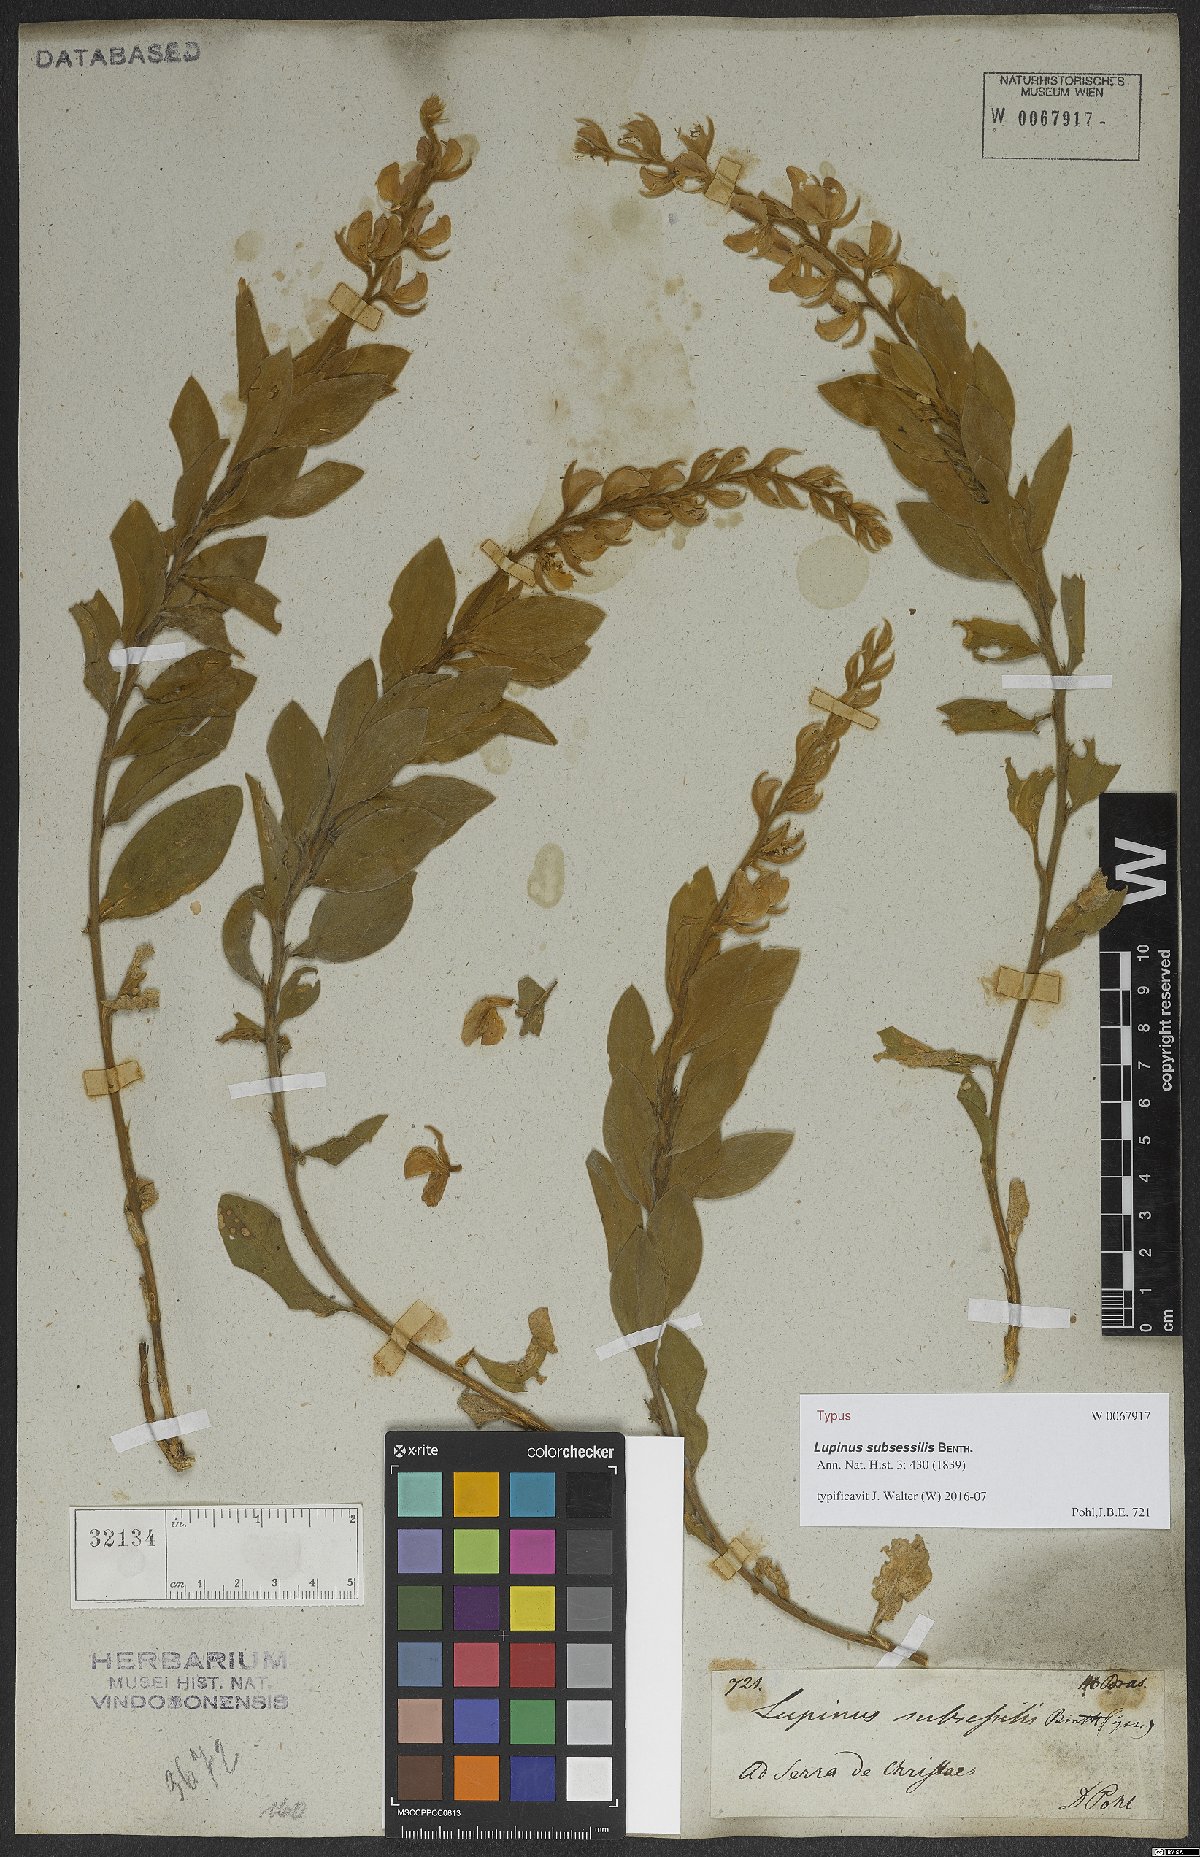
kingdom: Plantae
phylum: Tracheophyta
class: Magnoliopsida
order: Fabales
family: Fabaceae
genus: Lupinus
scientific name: Lupinus subsessilis
